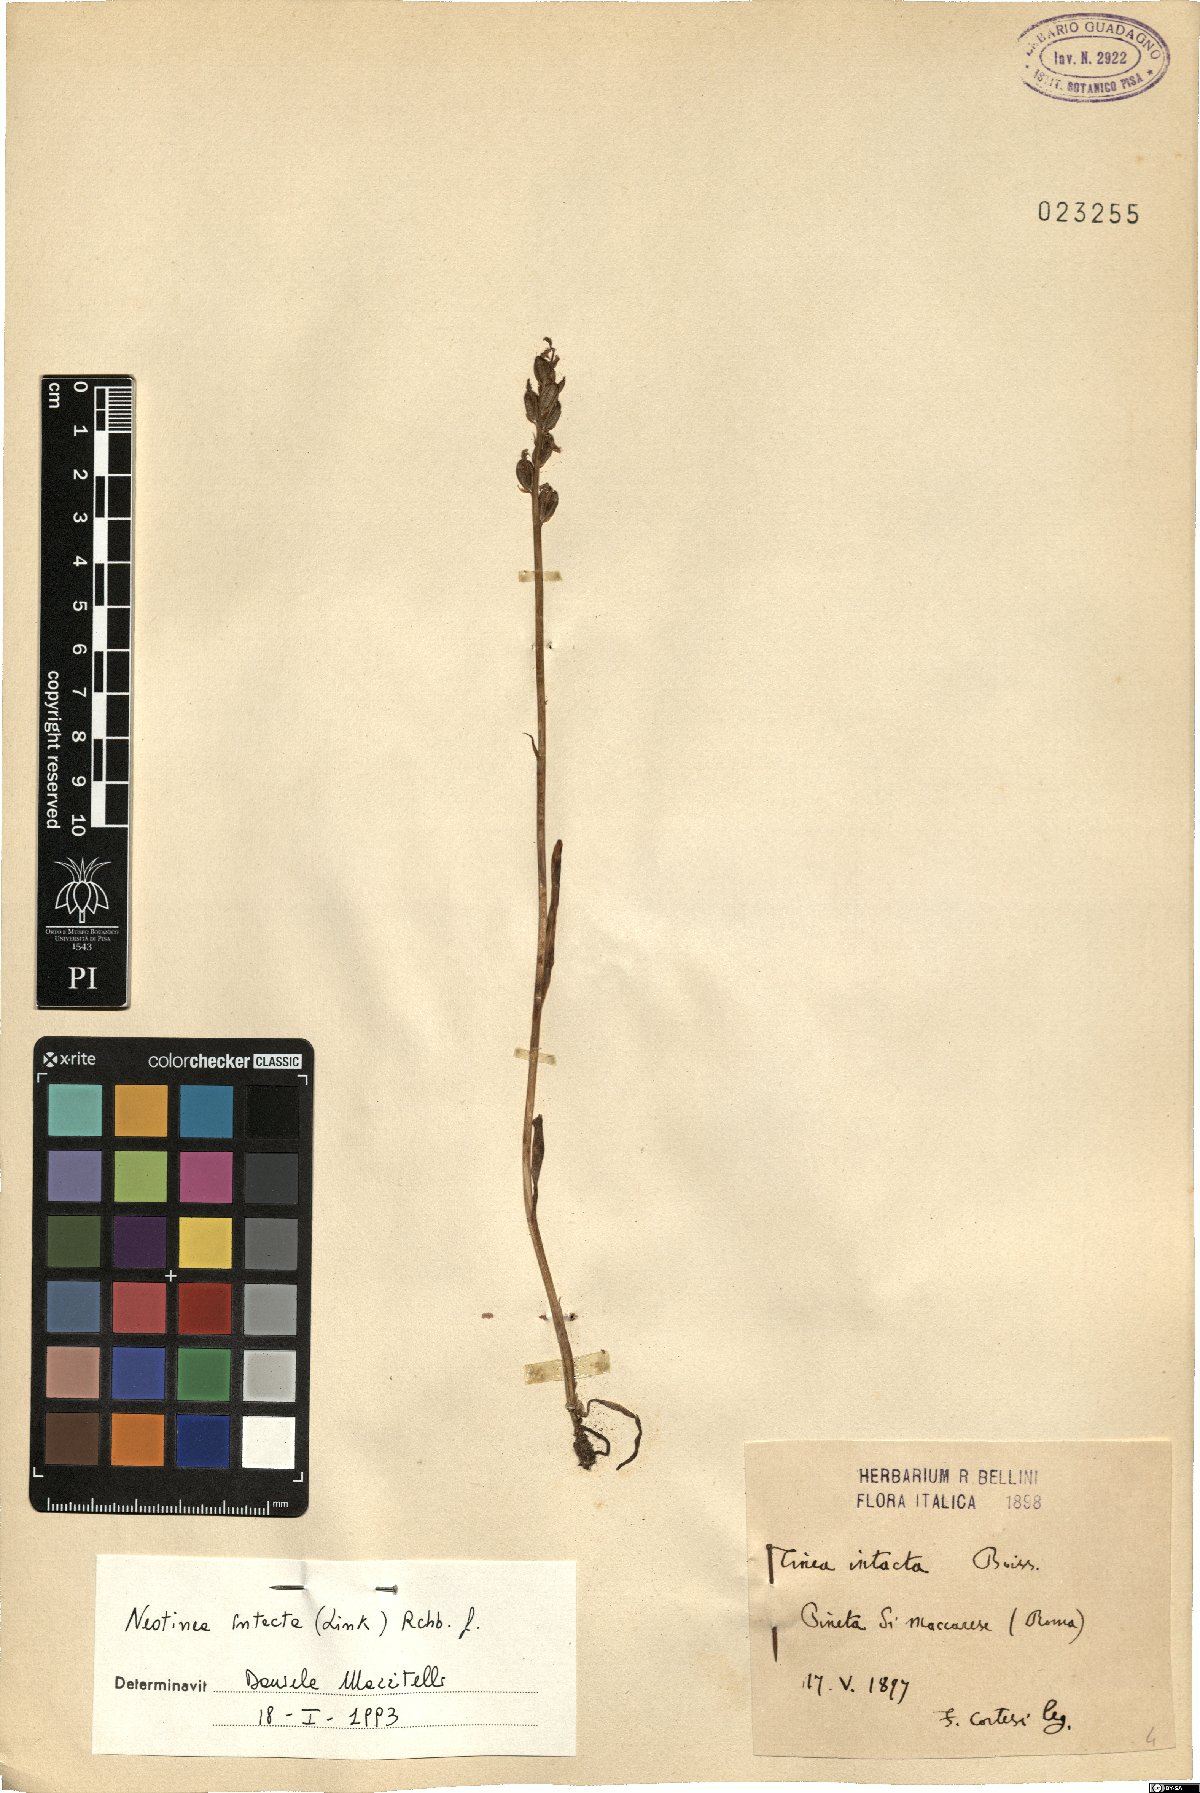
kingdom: Plantae
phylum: Tracheophyta
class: Liliopsida
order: Asparagales
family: Orchidaceae
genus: Neotinea
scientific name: Neotinea maculata
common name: Dense-flowered orchid
